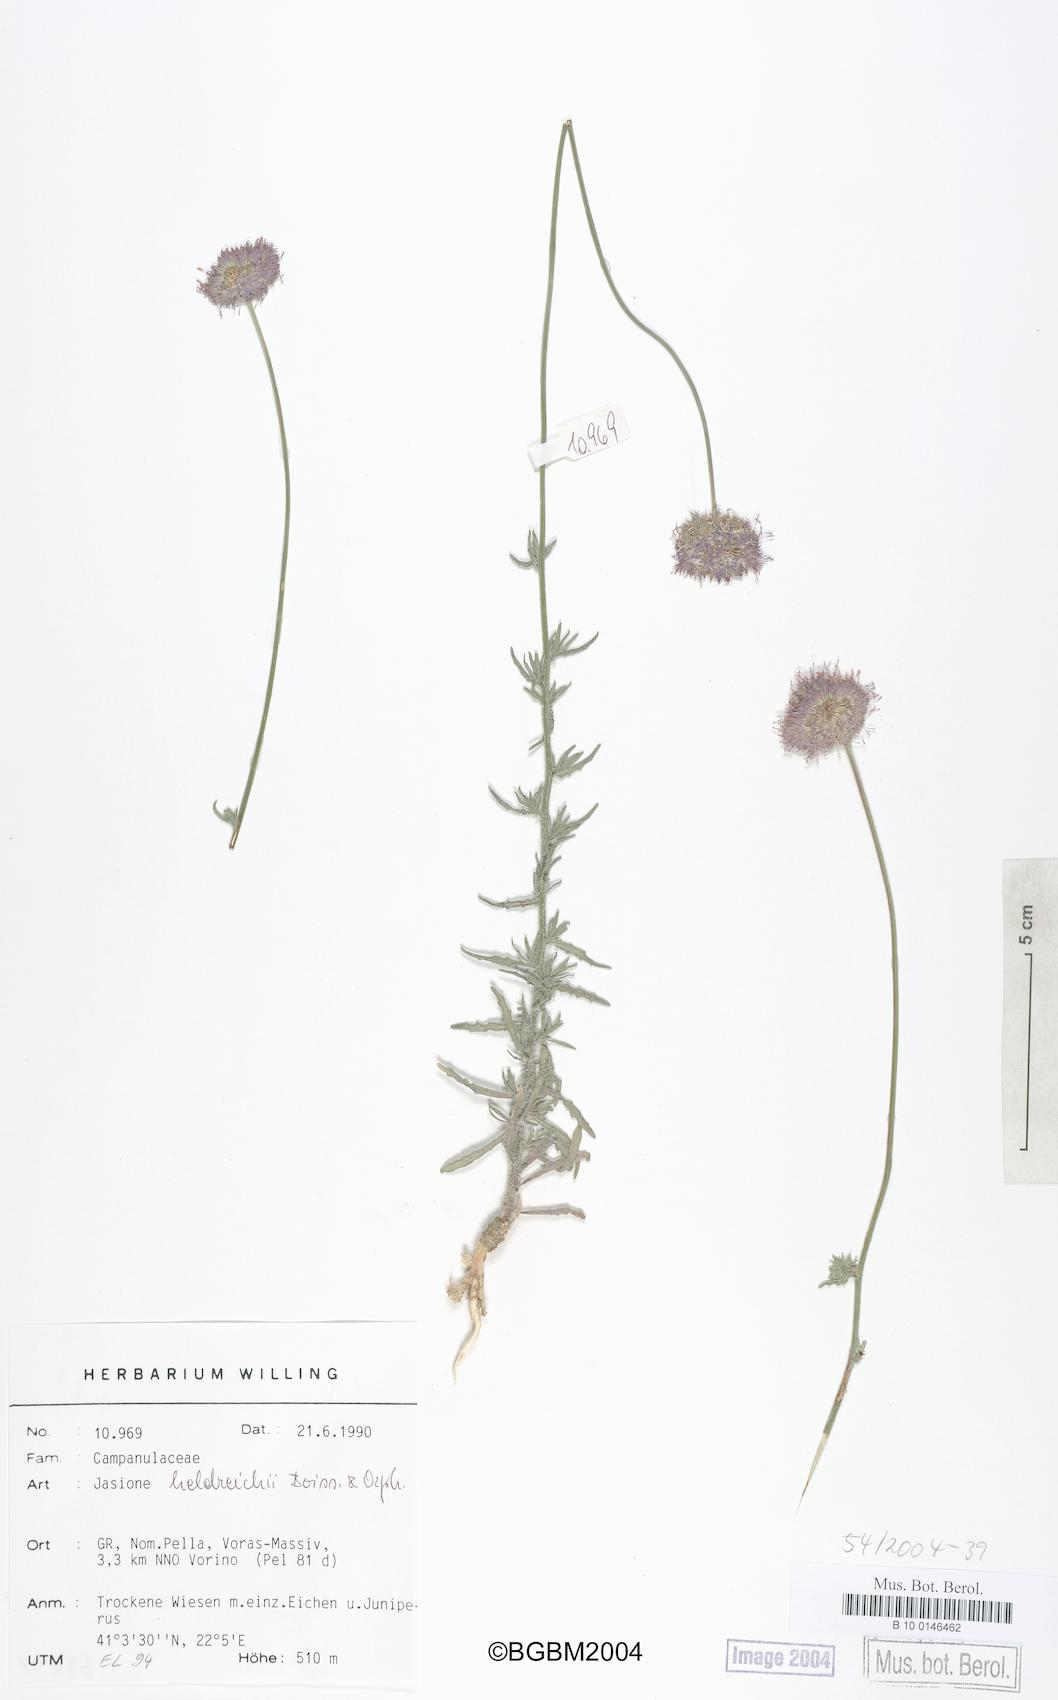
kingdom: Plantae
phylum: Tracheophyta
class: Magnoliopsida
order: Asterales
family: Campanulaceae
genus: Jasione
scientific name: Jasione heldreichii
